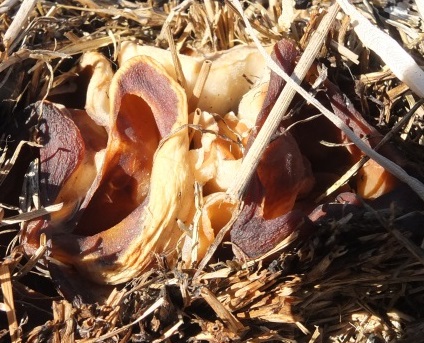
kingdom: Fungi
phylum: Ascomycota
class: Pezizomycetes
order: Pezizales
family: Pezizaceae
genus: Peziza
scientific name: Peziza vesiculosa
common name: blære-bægersvamp
